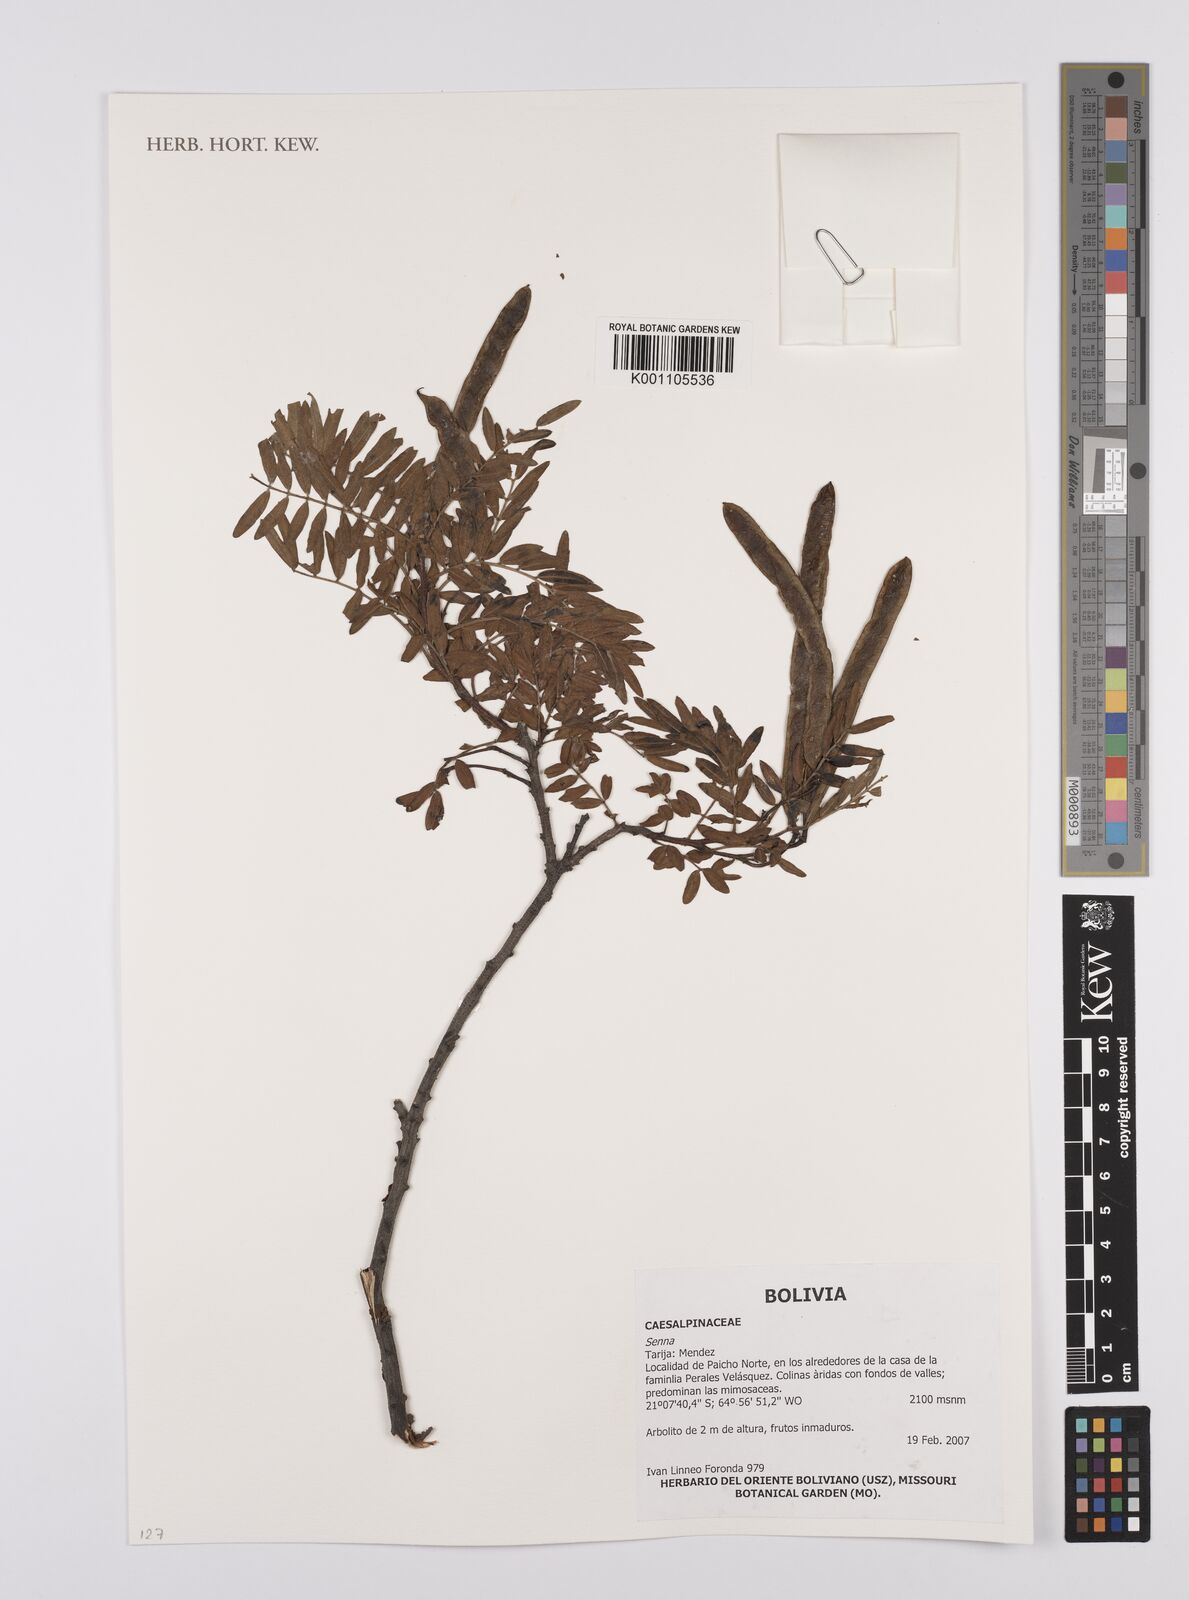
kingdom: Plantae
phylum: Tracheophyta
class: Magnoliopsida
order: Fabales
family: Fabaceae
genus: Senna
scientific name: Senna
